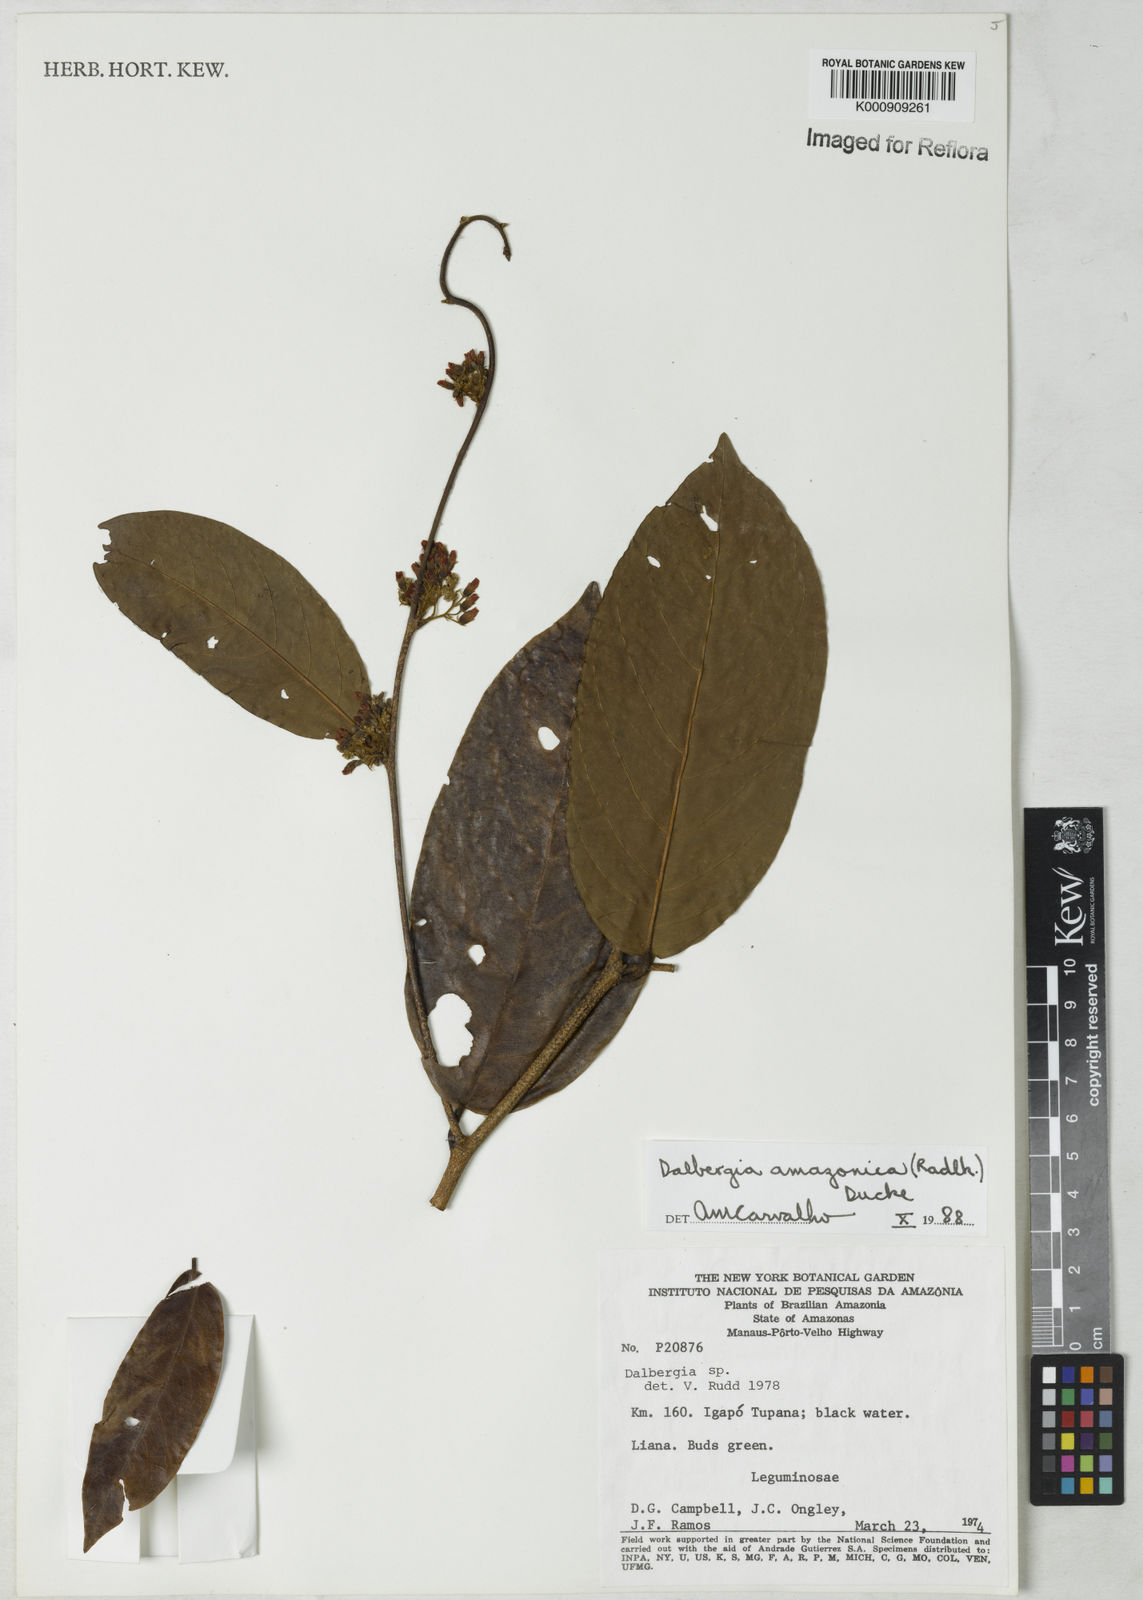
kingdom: Plantae
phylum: Tracheophyta
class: Magnoliopsida
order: Fabales
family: Fabaceae
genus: Dalbergia
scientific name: Dalbergia
